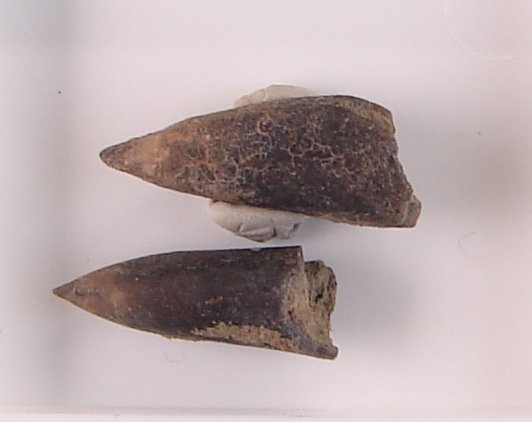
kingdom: Animalia
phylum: Mollusca
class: Cephalopoda
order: Belemnitida
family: Passaloteuthidae
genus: Brevibelus
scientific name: Brevibelus
